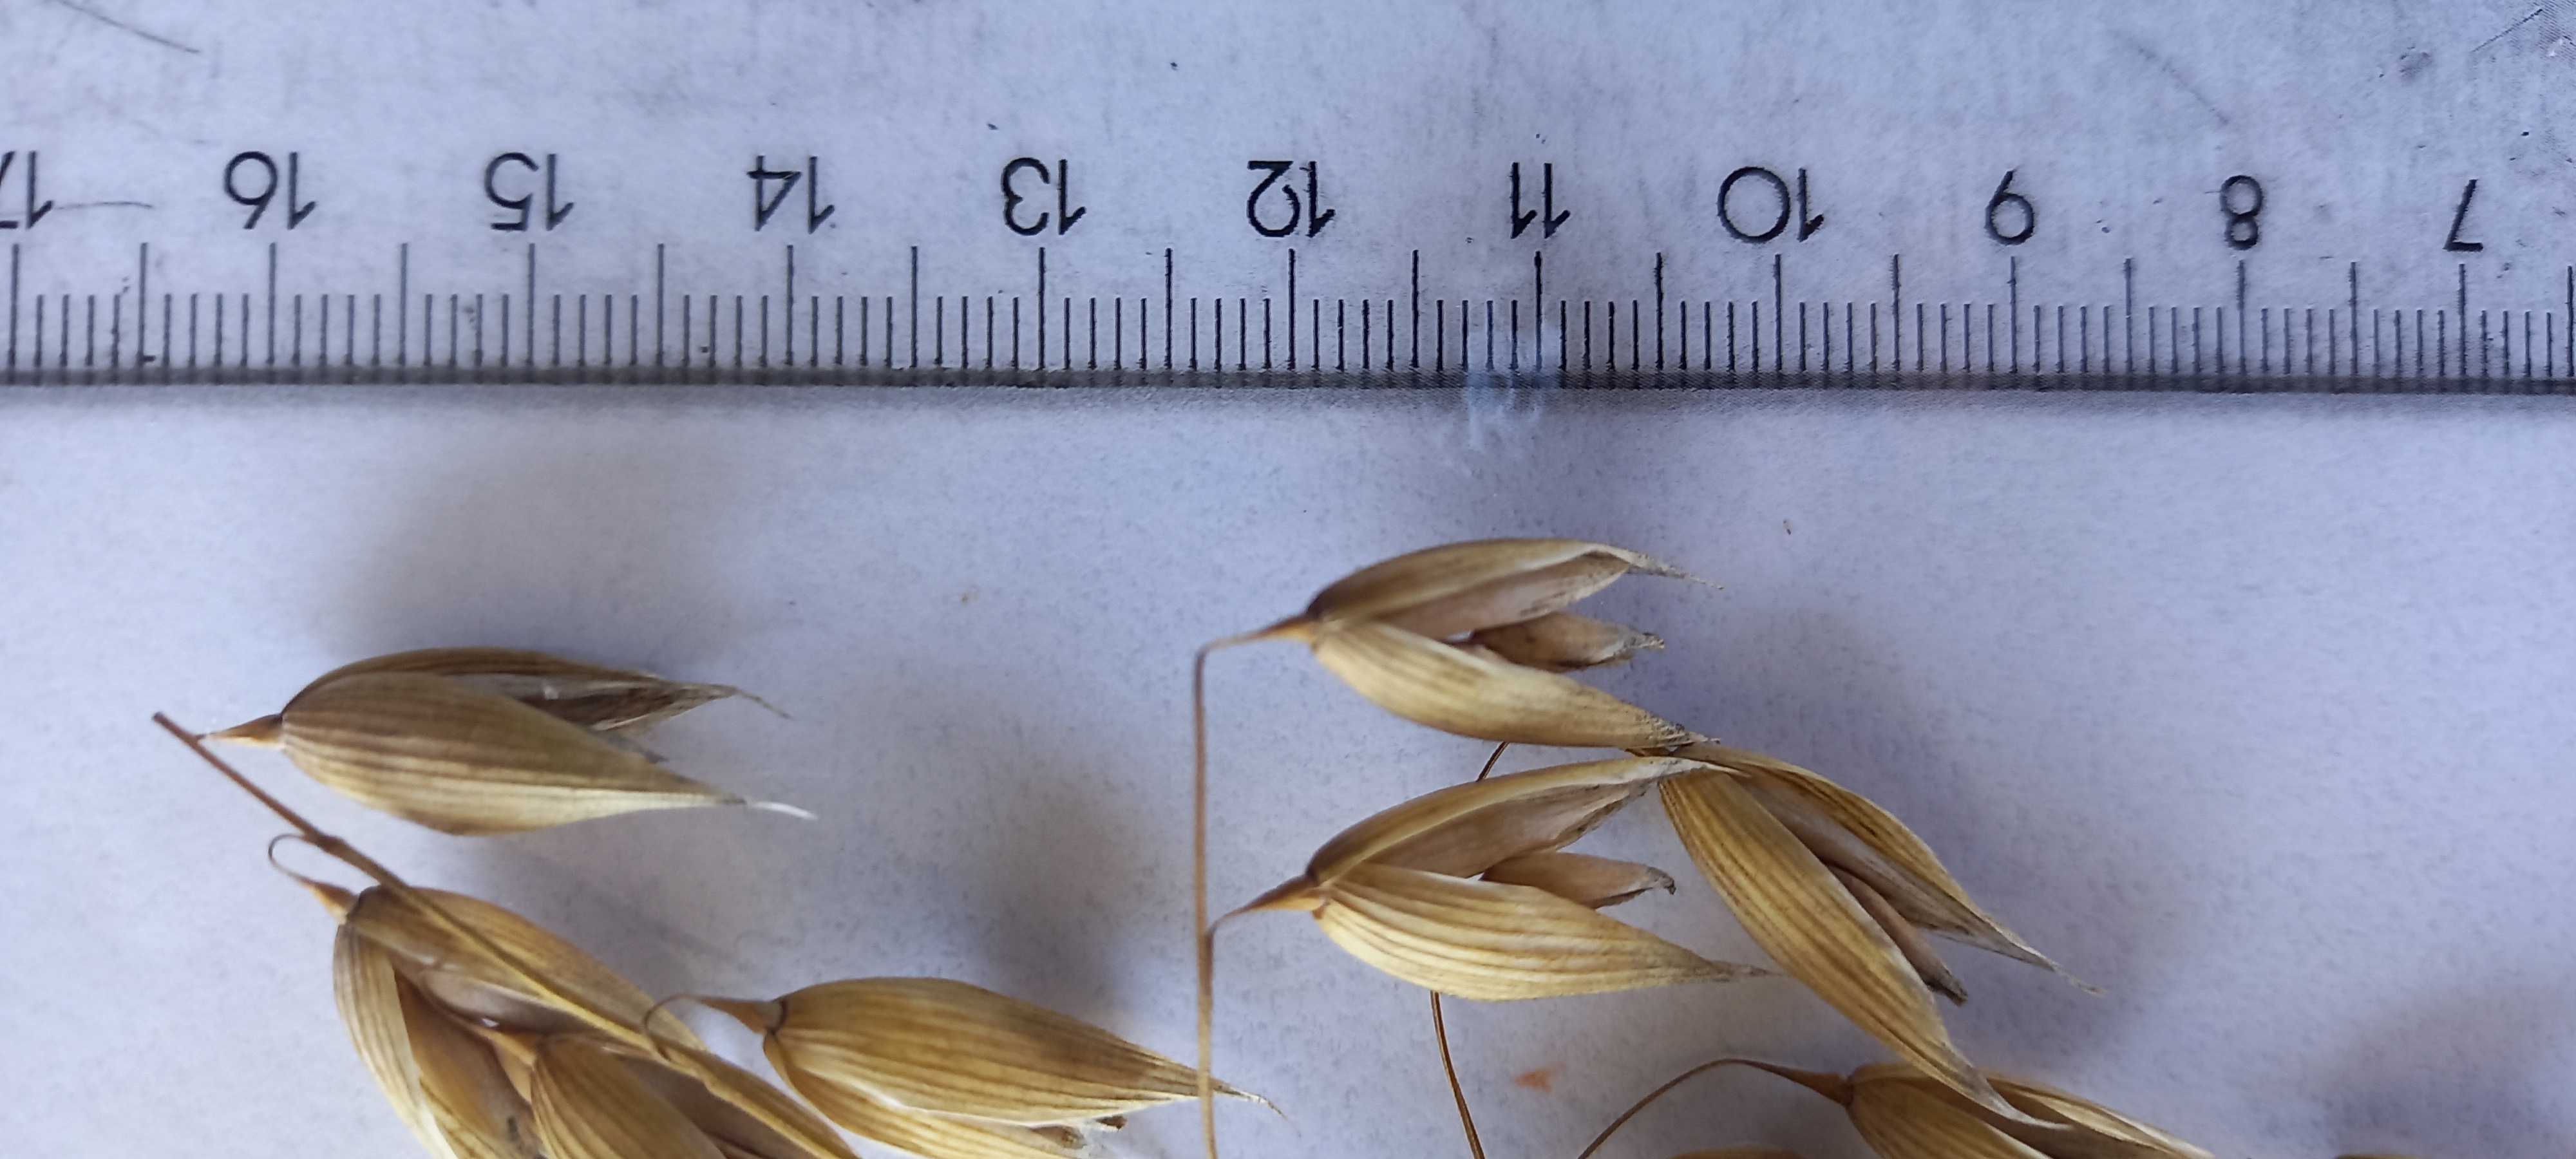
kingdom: Plantae
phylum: Tracheophyta
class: Liliopsida
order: Poales
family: Poaceae
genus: Avena
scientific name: Avena sativa
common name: Oat
